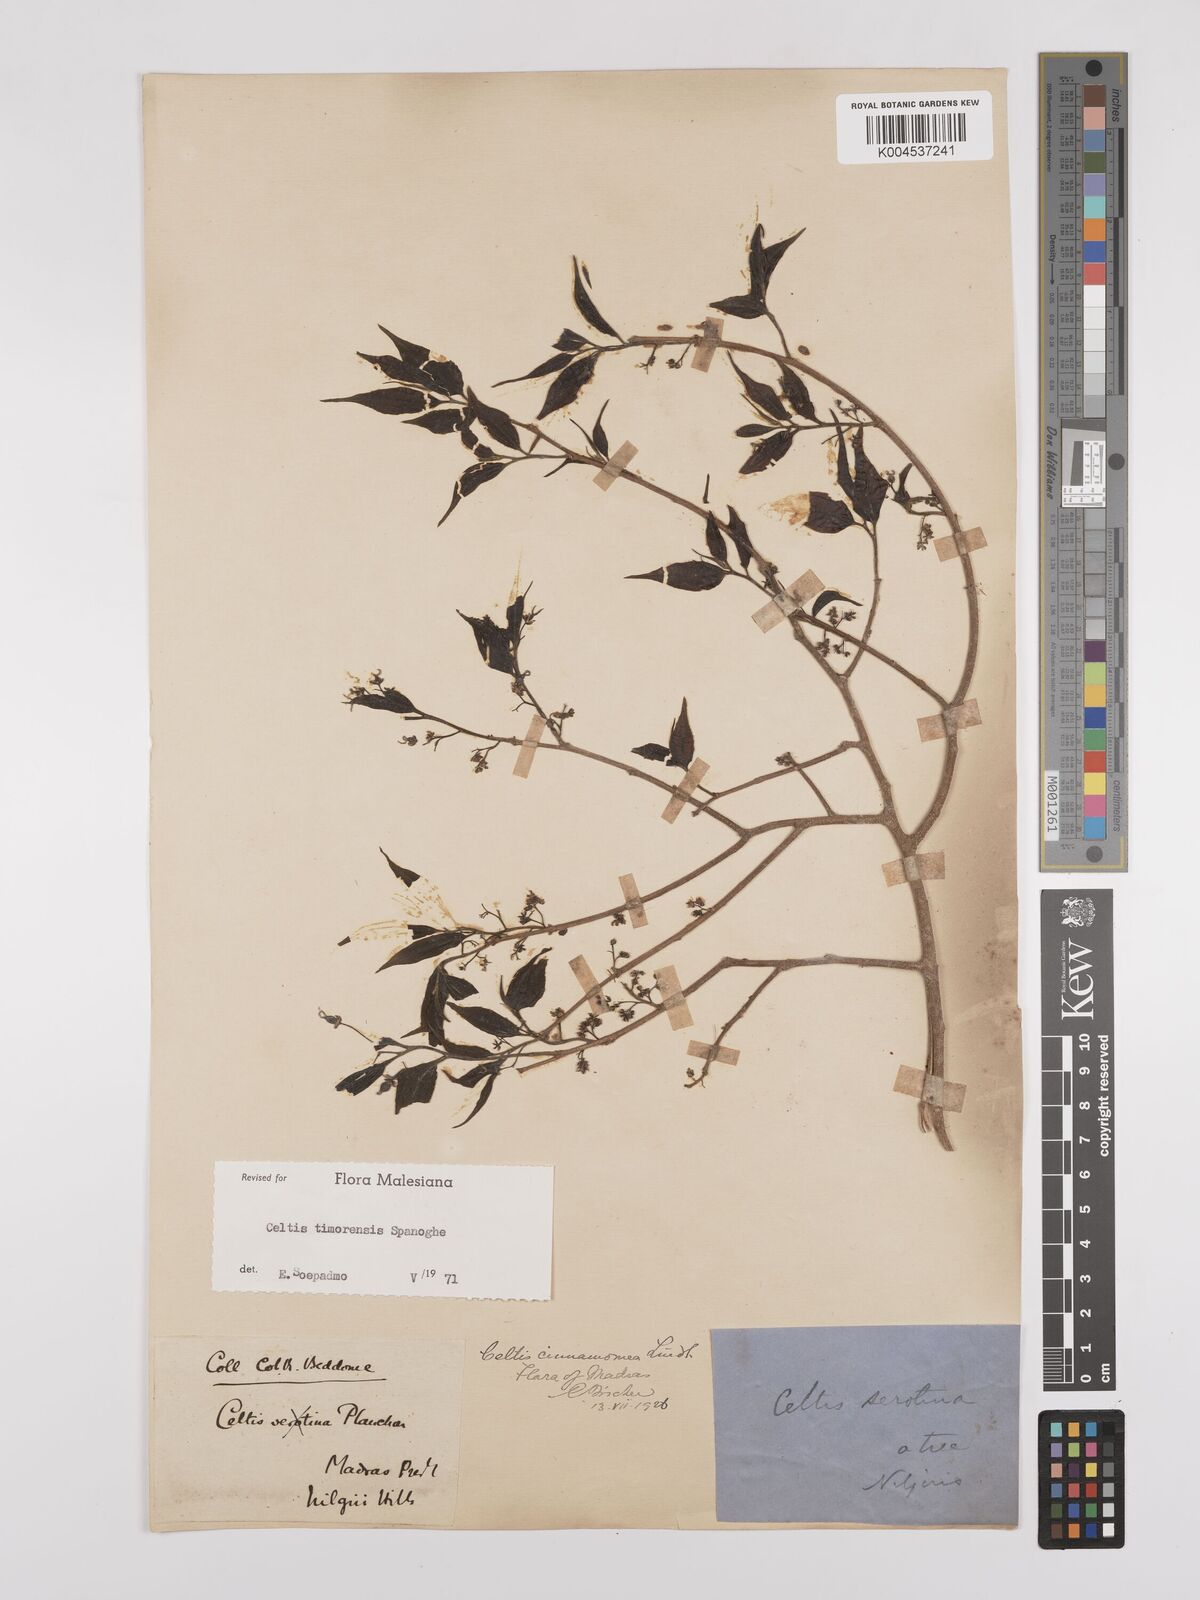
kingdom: Plantae
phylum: Tracheophyta
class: Magnoliopsida
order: Rosales
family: Cannabaceae
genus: Celtis
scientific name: Celtis timorensis
